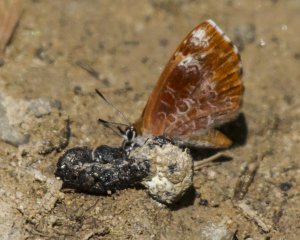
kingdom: Animalia
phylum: Arthropoda
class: Insecta
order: Lepidoptera
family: Lycaenidae
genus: Feniseca
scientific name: Feniseca tarquinius
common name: Harvester
